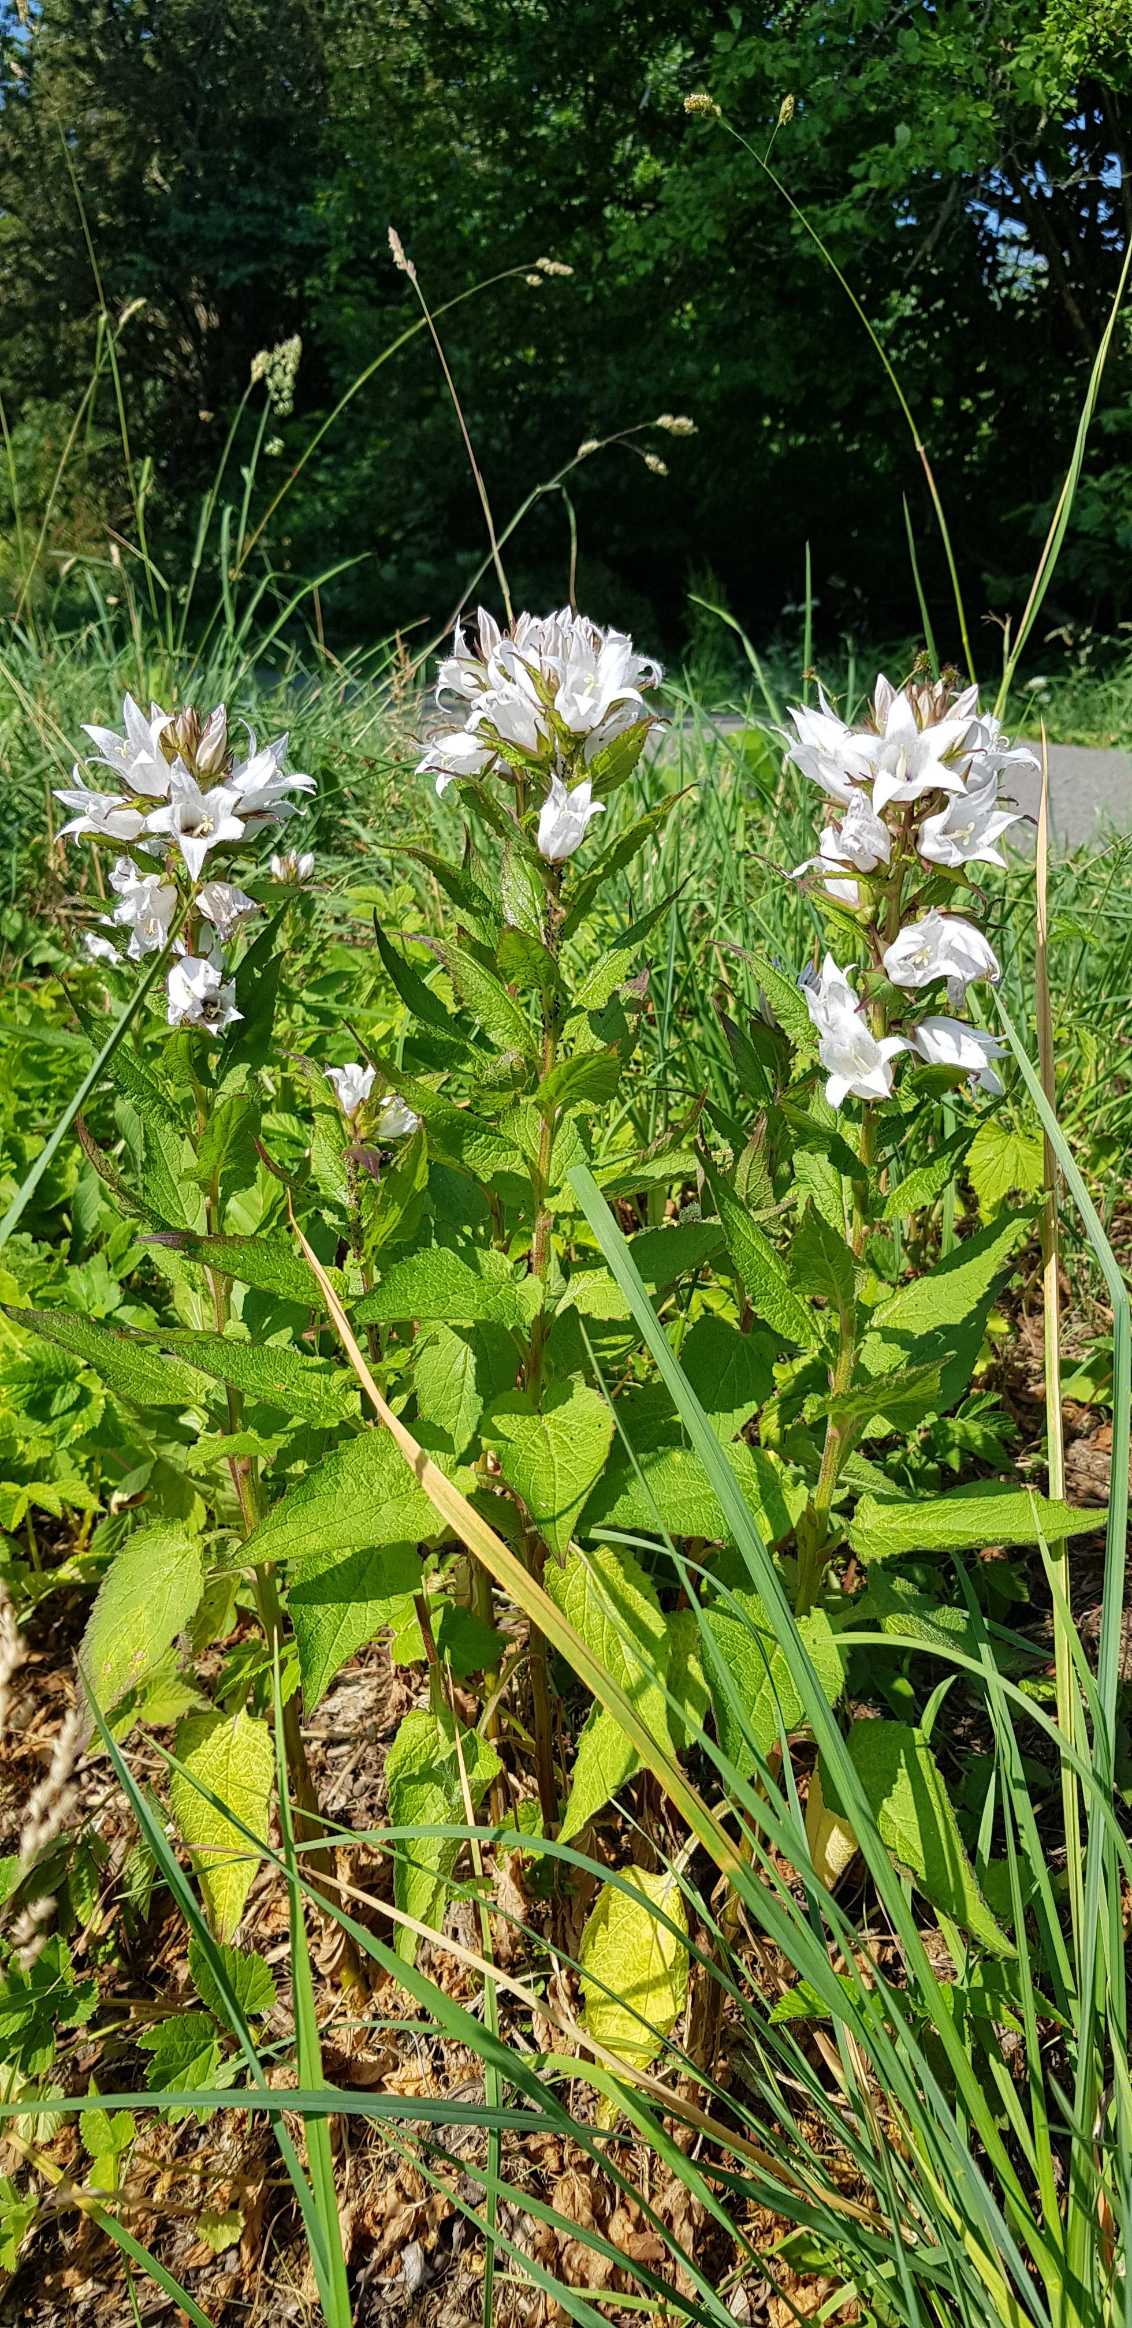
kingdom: Plantae
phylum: Tracheophyta
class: Magnoliopsida
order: Asterales
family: Campanulaceae
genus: Campanula
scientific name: Campanula lactiflora
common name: Mælke-klokke
